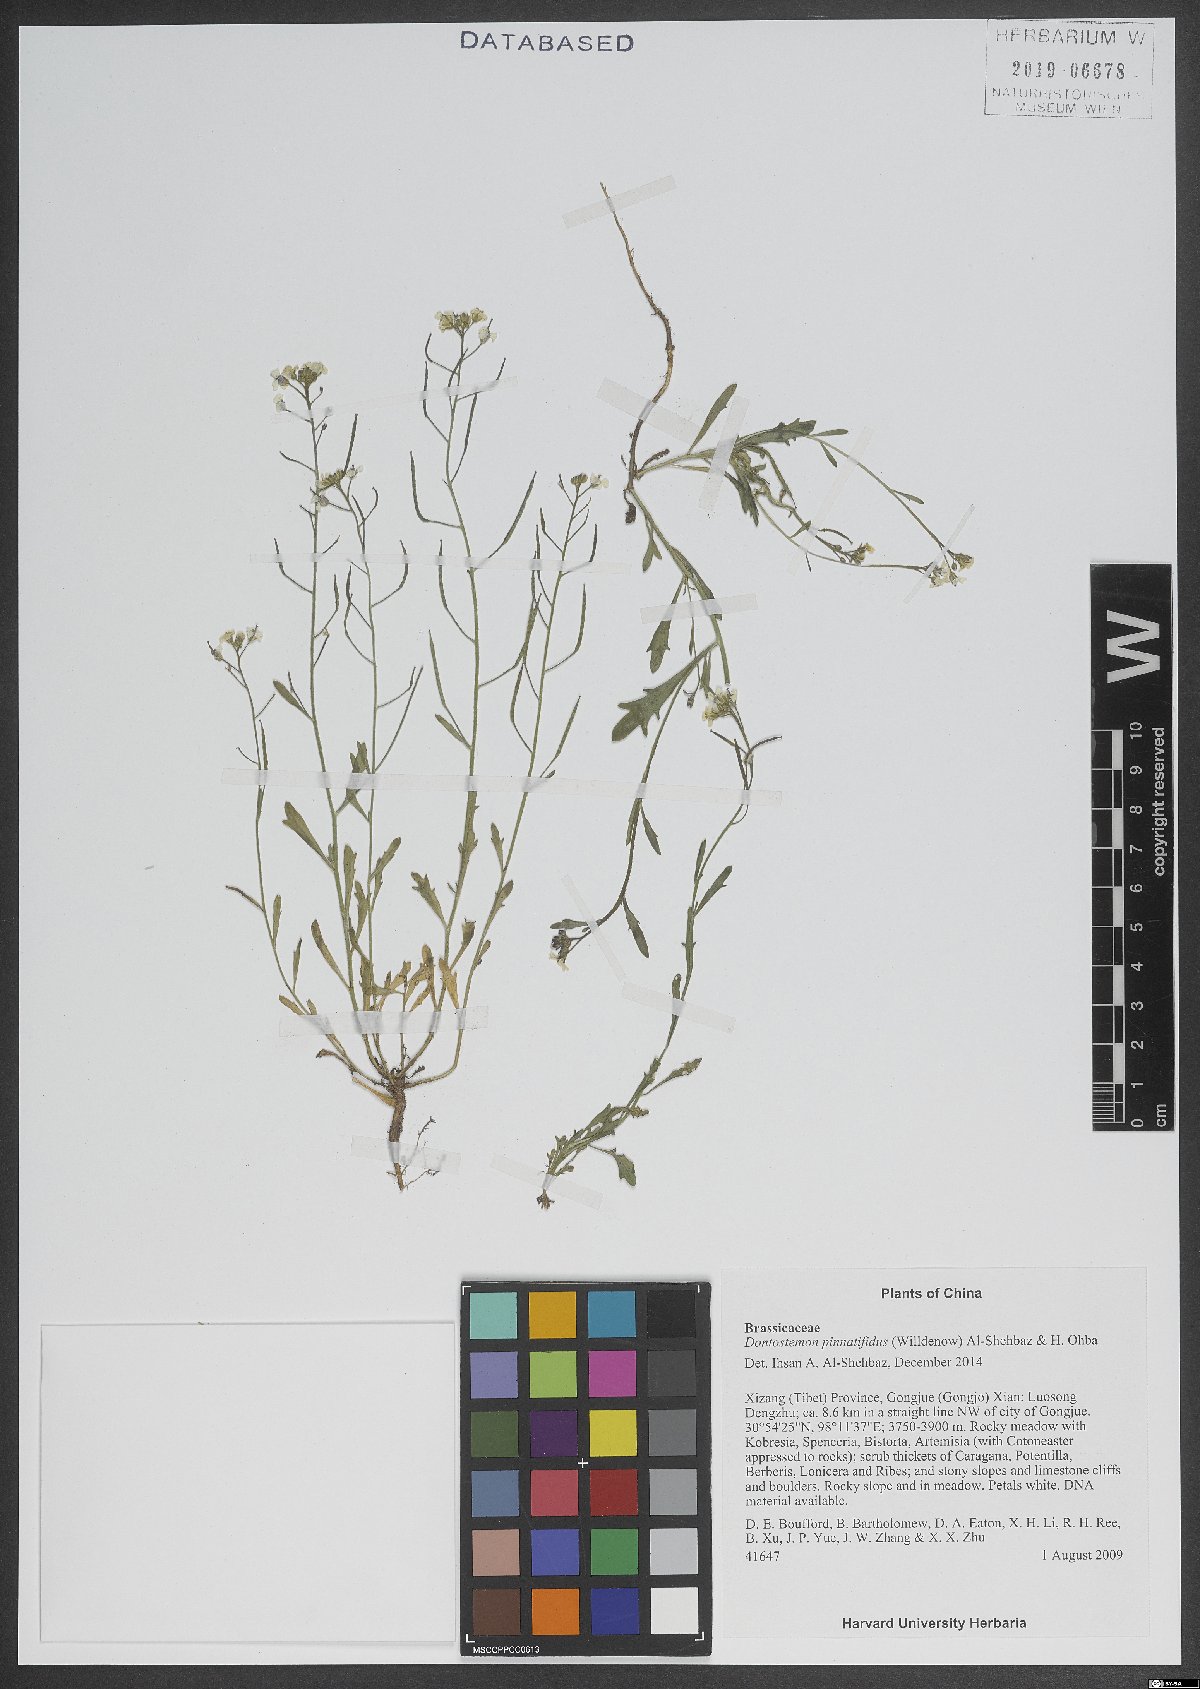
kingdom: Plantae
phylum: Tracheophyta
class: Magnoliopsida
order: Brassicales
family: Brassicaceae
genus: Dontostemon
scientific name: Dontostemon pinnatifidus
